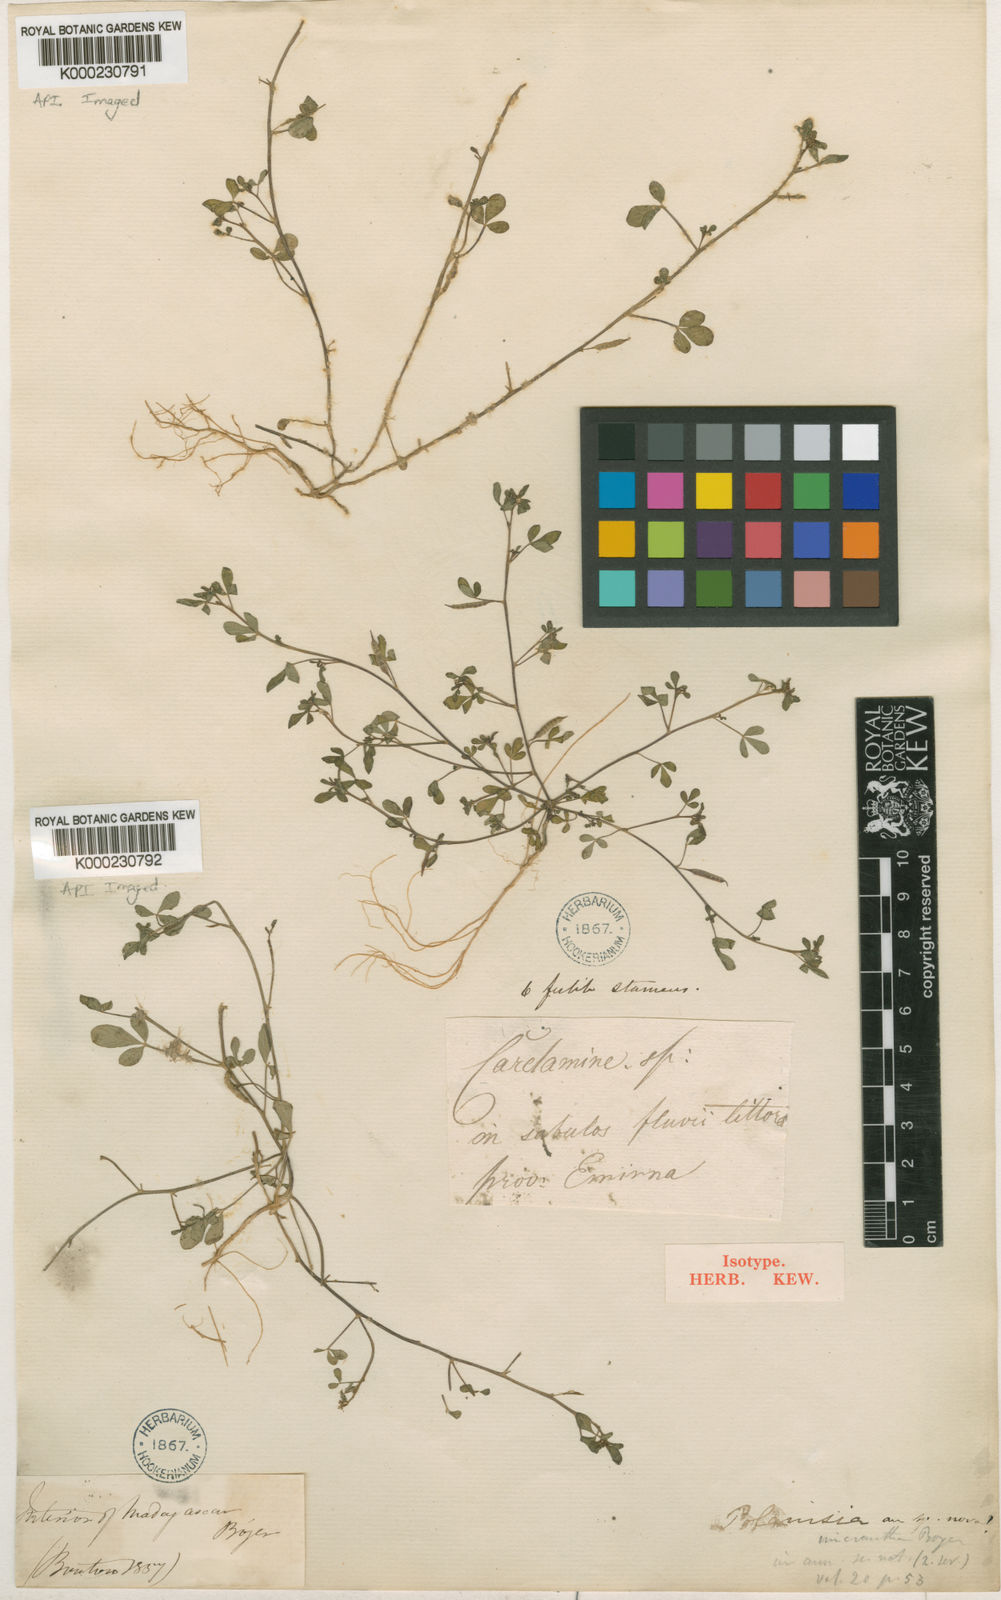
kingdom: Plantae
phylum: Tracheophyta
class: Magnoliopsida
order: Brassicales
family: Cleomaceae
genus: Tarenaya
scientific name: Tarenaya parviflora
